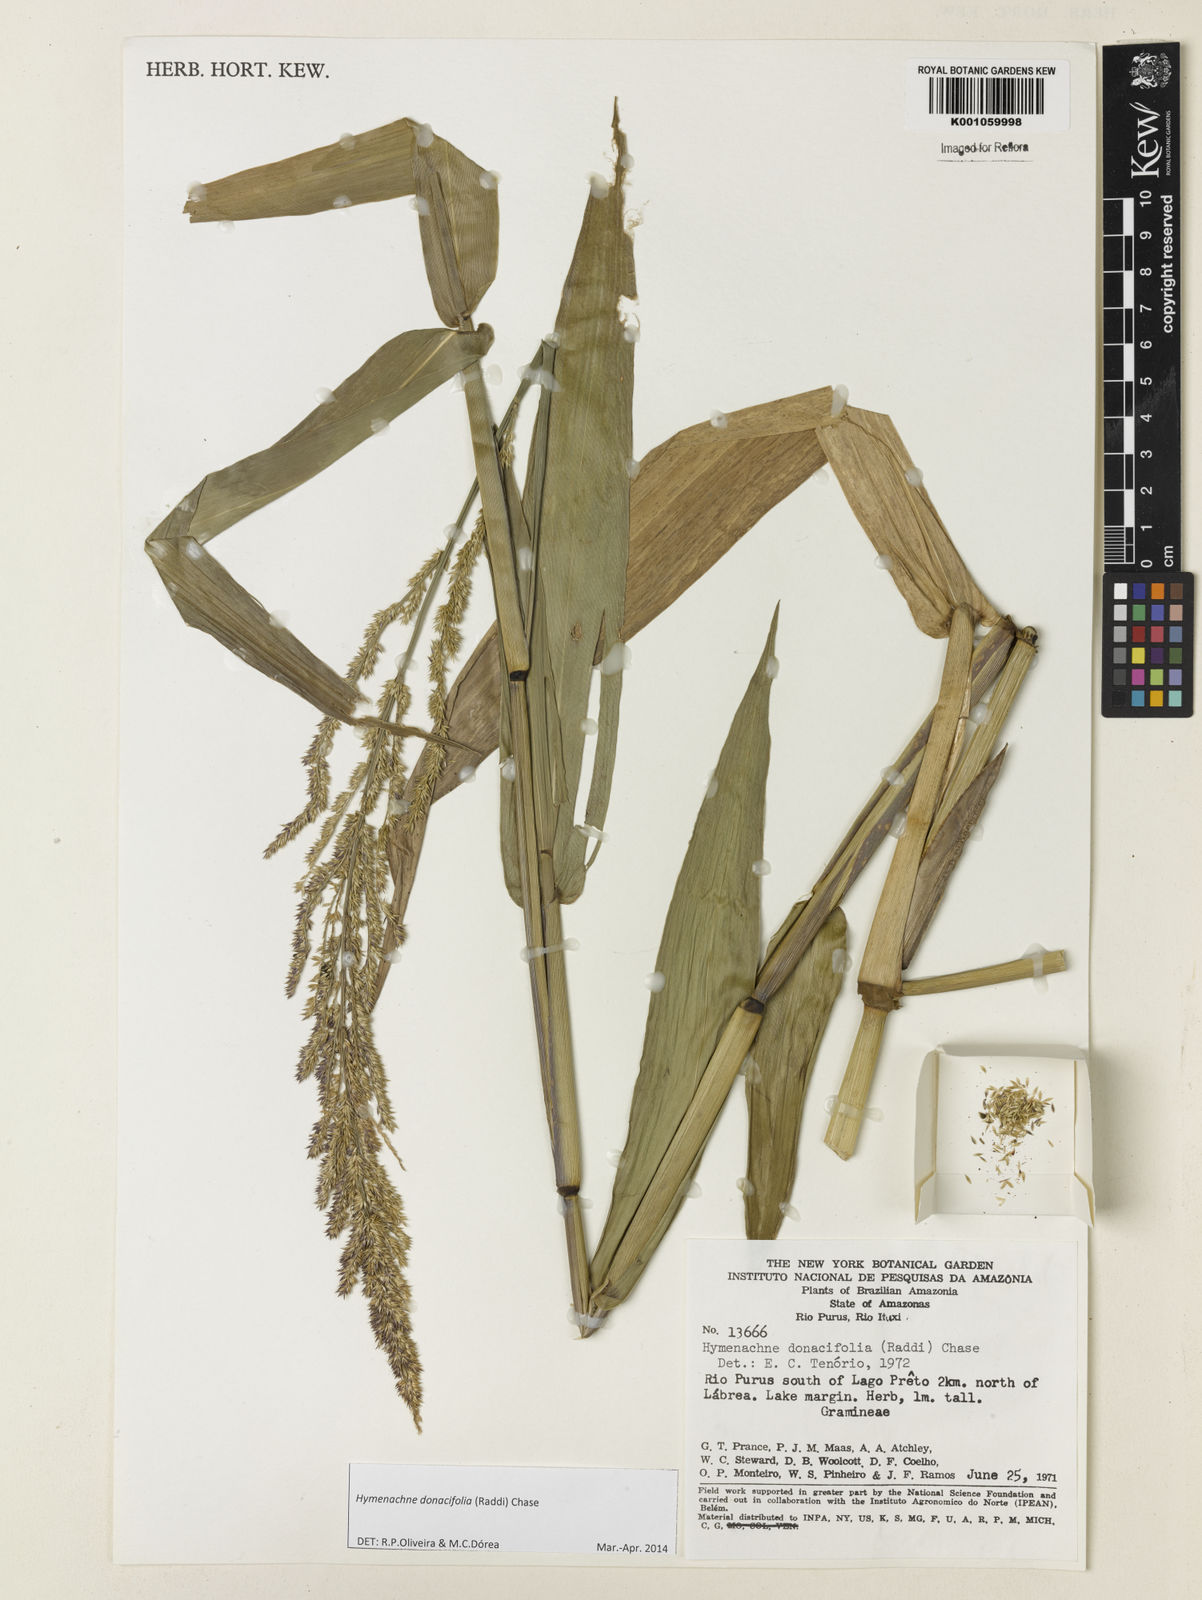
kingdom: Plantae
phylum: Tracheophyta
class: Liliopsida
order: Poales
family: Poaceae
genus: Hymenachne
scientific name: Hymenachne donacifolia
